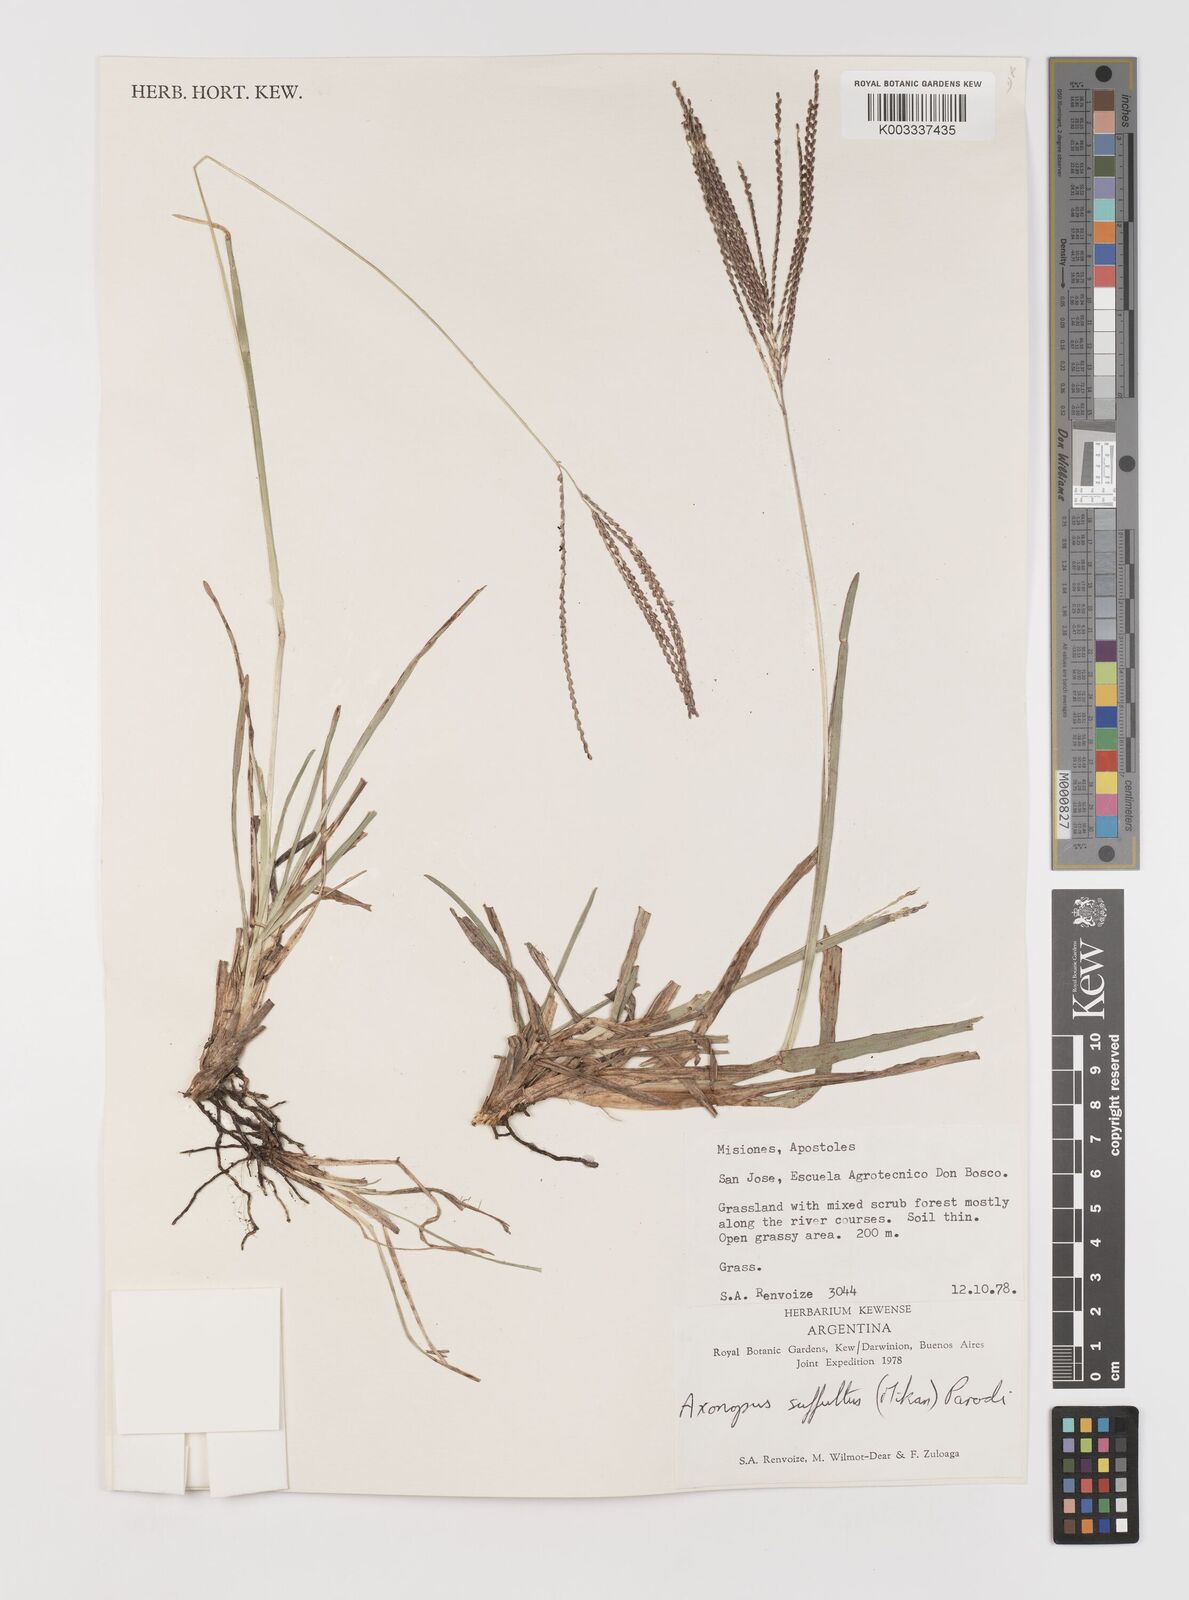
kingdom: Plantae
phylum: Tracheophyta
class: Liliopsida
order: Poales
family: Poaceae
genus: Axonopus
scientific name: Axonopus suffultus
